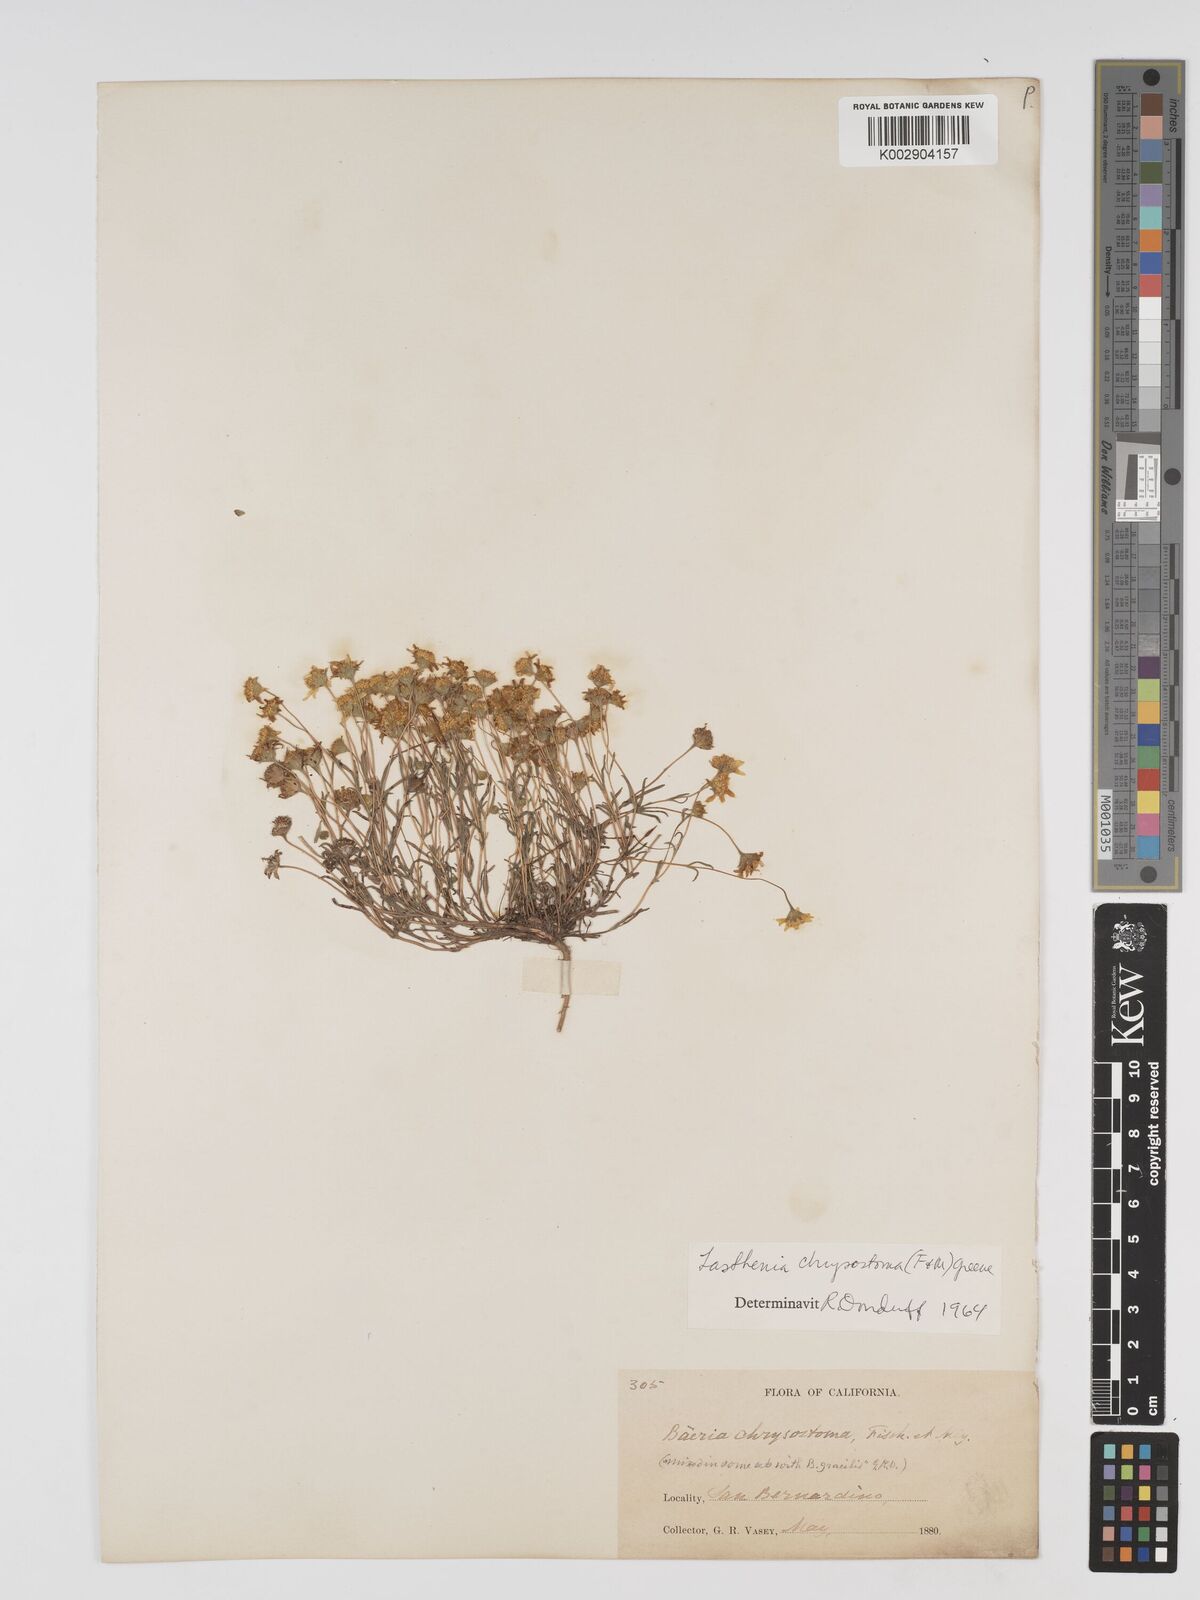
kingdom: Plantae
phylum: Tracheophyta
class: Magnoliopsida
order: Asterales
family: Asteraceae
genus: Lasthenia
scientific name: Lasthenia californica
